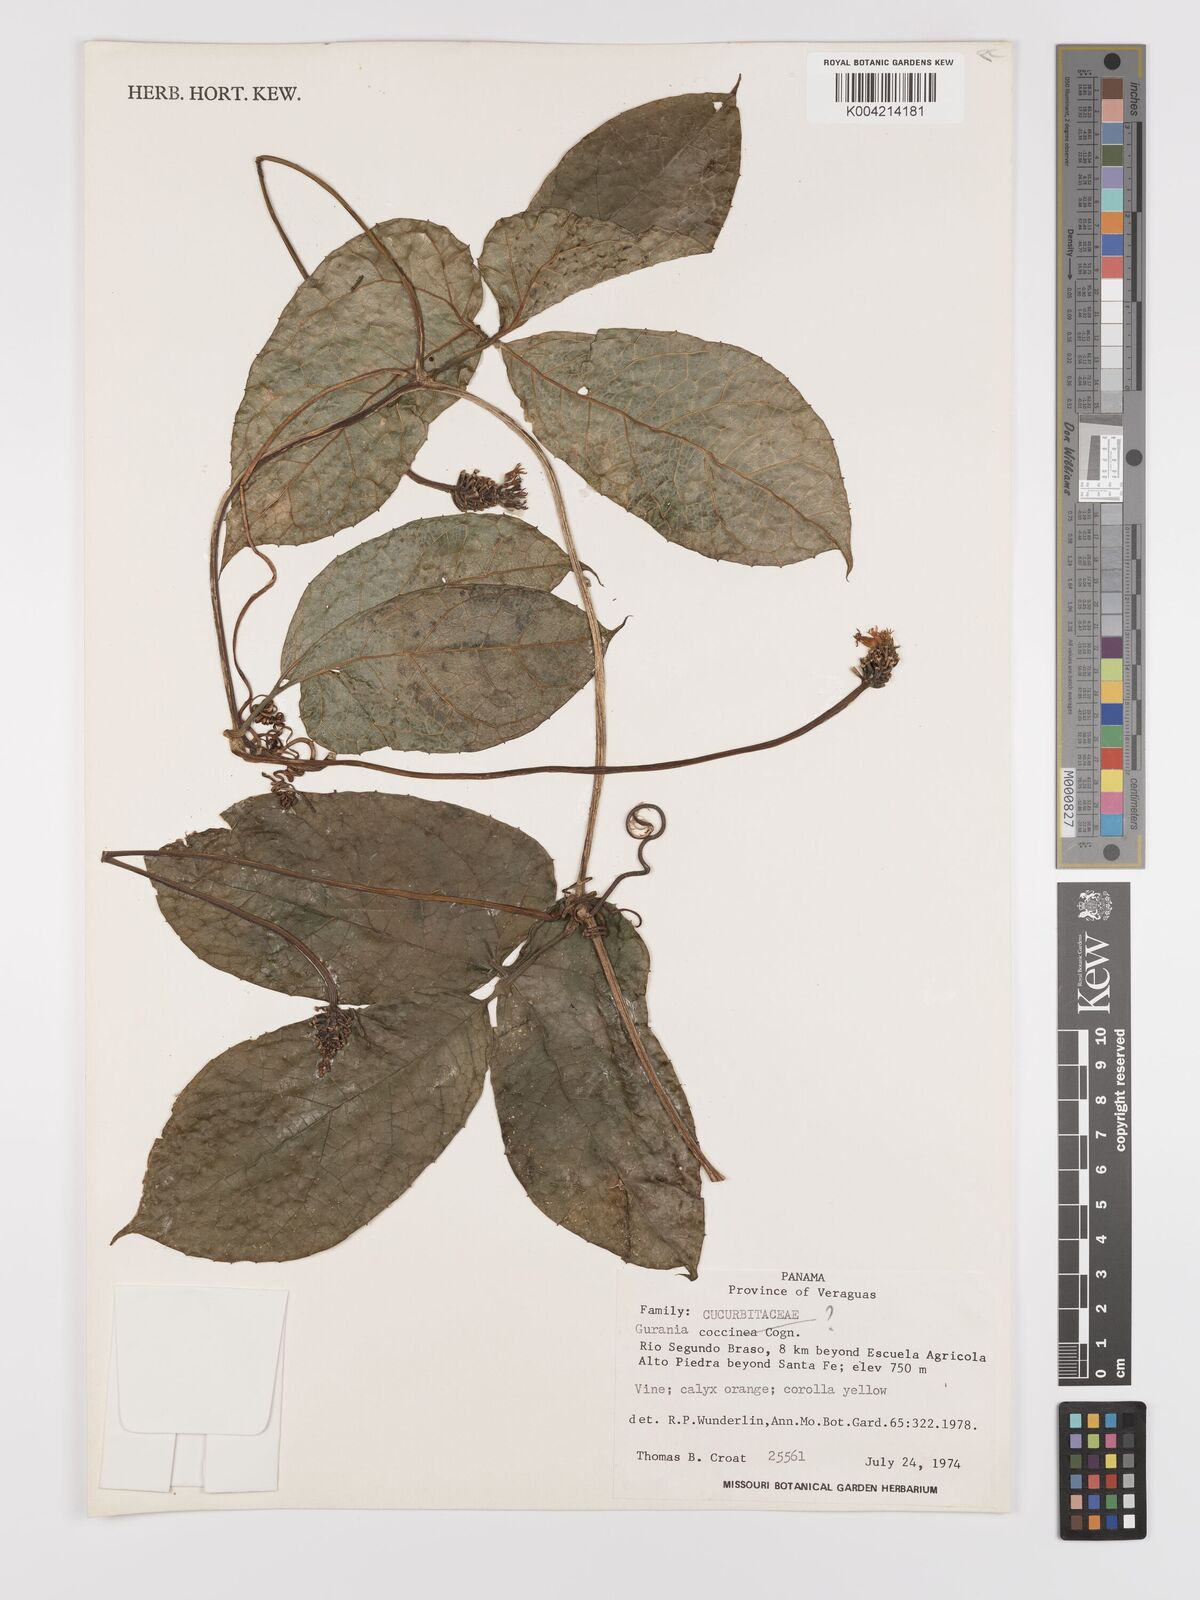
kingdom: Plantae
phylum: Tracheophyta
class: Magnoliopsida
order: Cucurbitales
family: Cucurbitaceae
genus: Gurania
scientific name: Gurania bignoniacea
